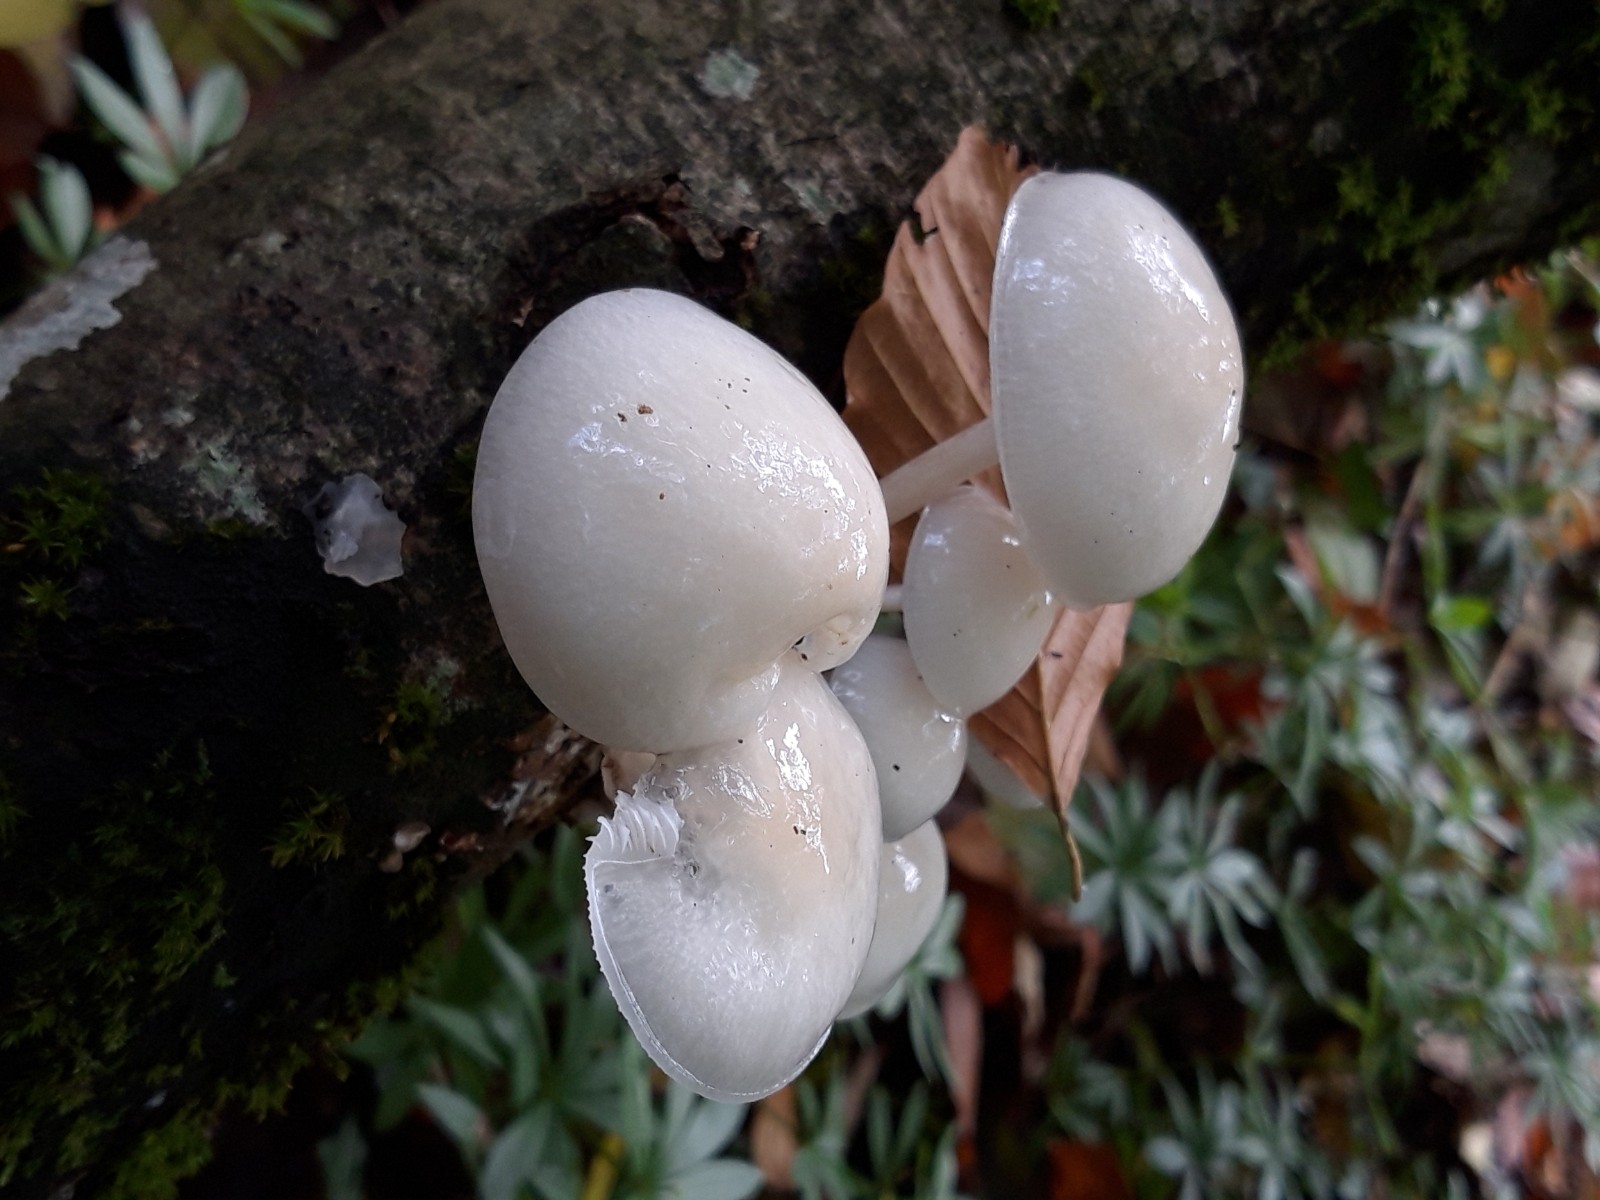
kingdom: Fungi
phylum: Basidiomycota
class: Agaricomycetes
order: Agaricales
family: Physalacriaceae
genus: Mucidula
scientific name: Mucidula mucida
